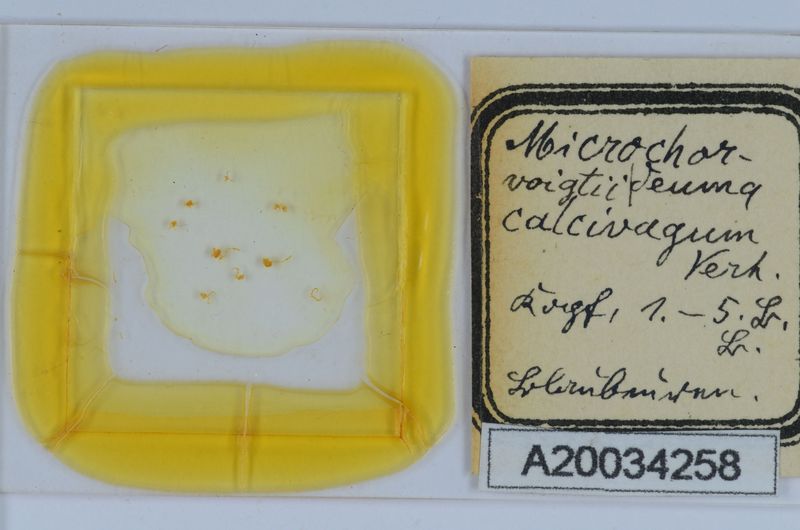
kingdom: Animalia
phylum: Arthropoda
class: Diplopoda
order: Chordeumatida
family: Chordeumatidae
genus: Melogona
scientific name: Melogona voigtii
